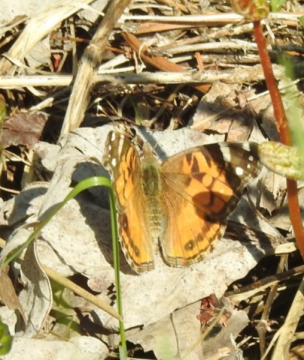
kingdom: Animalia
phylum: Arthropoda
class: Insecta
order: Lepidoptera
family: Nymphalidae
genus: Vanessa
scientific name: Vanessa virginiensis
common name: American Lady
